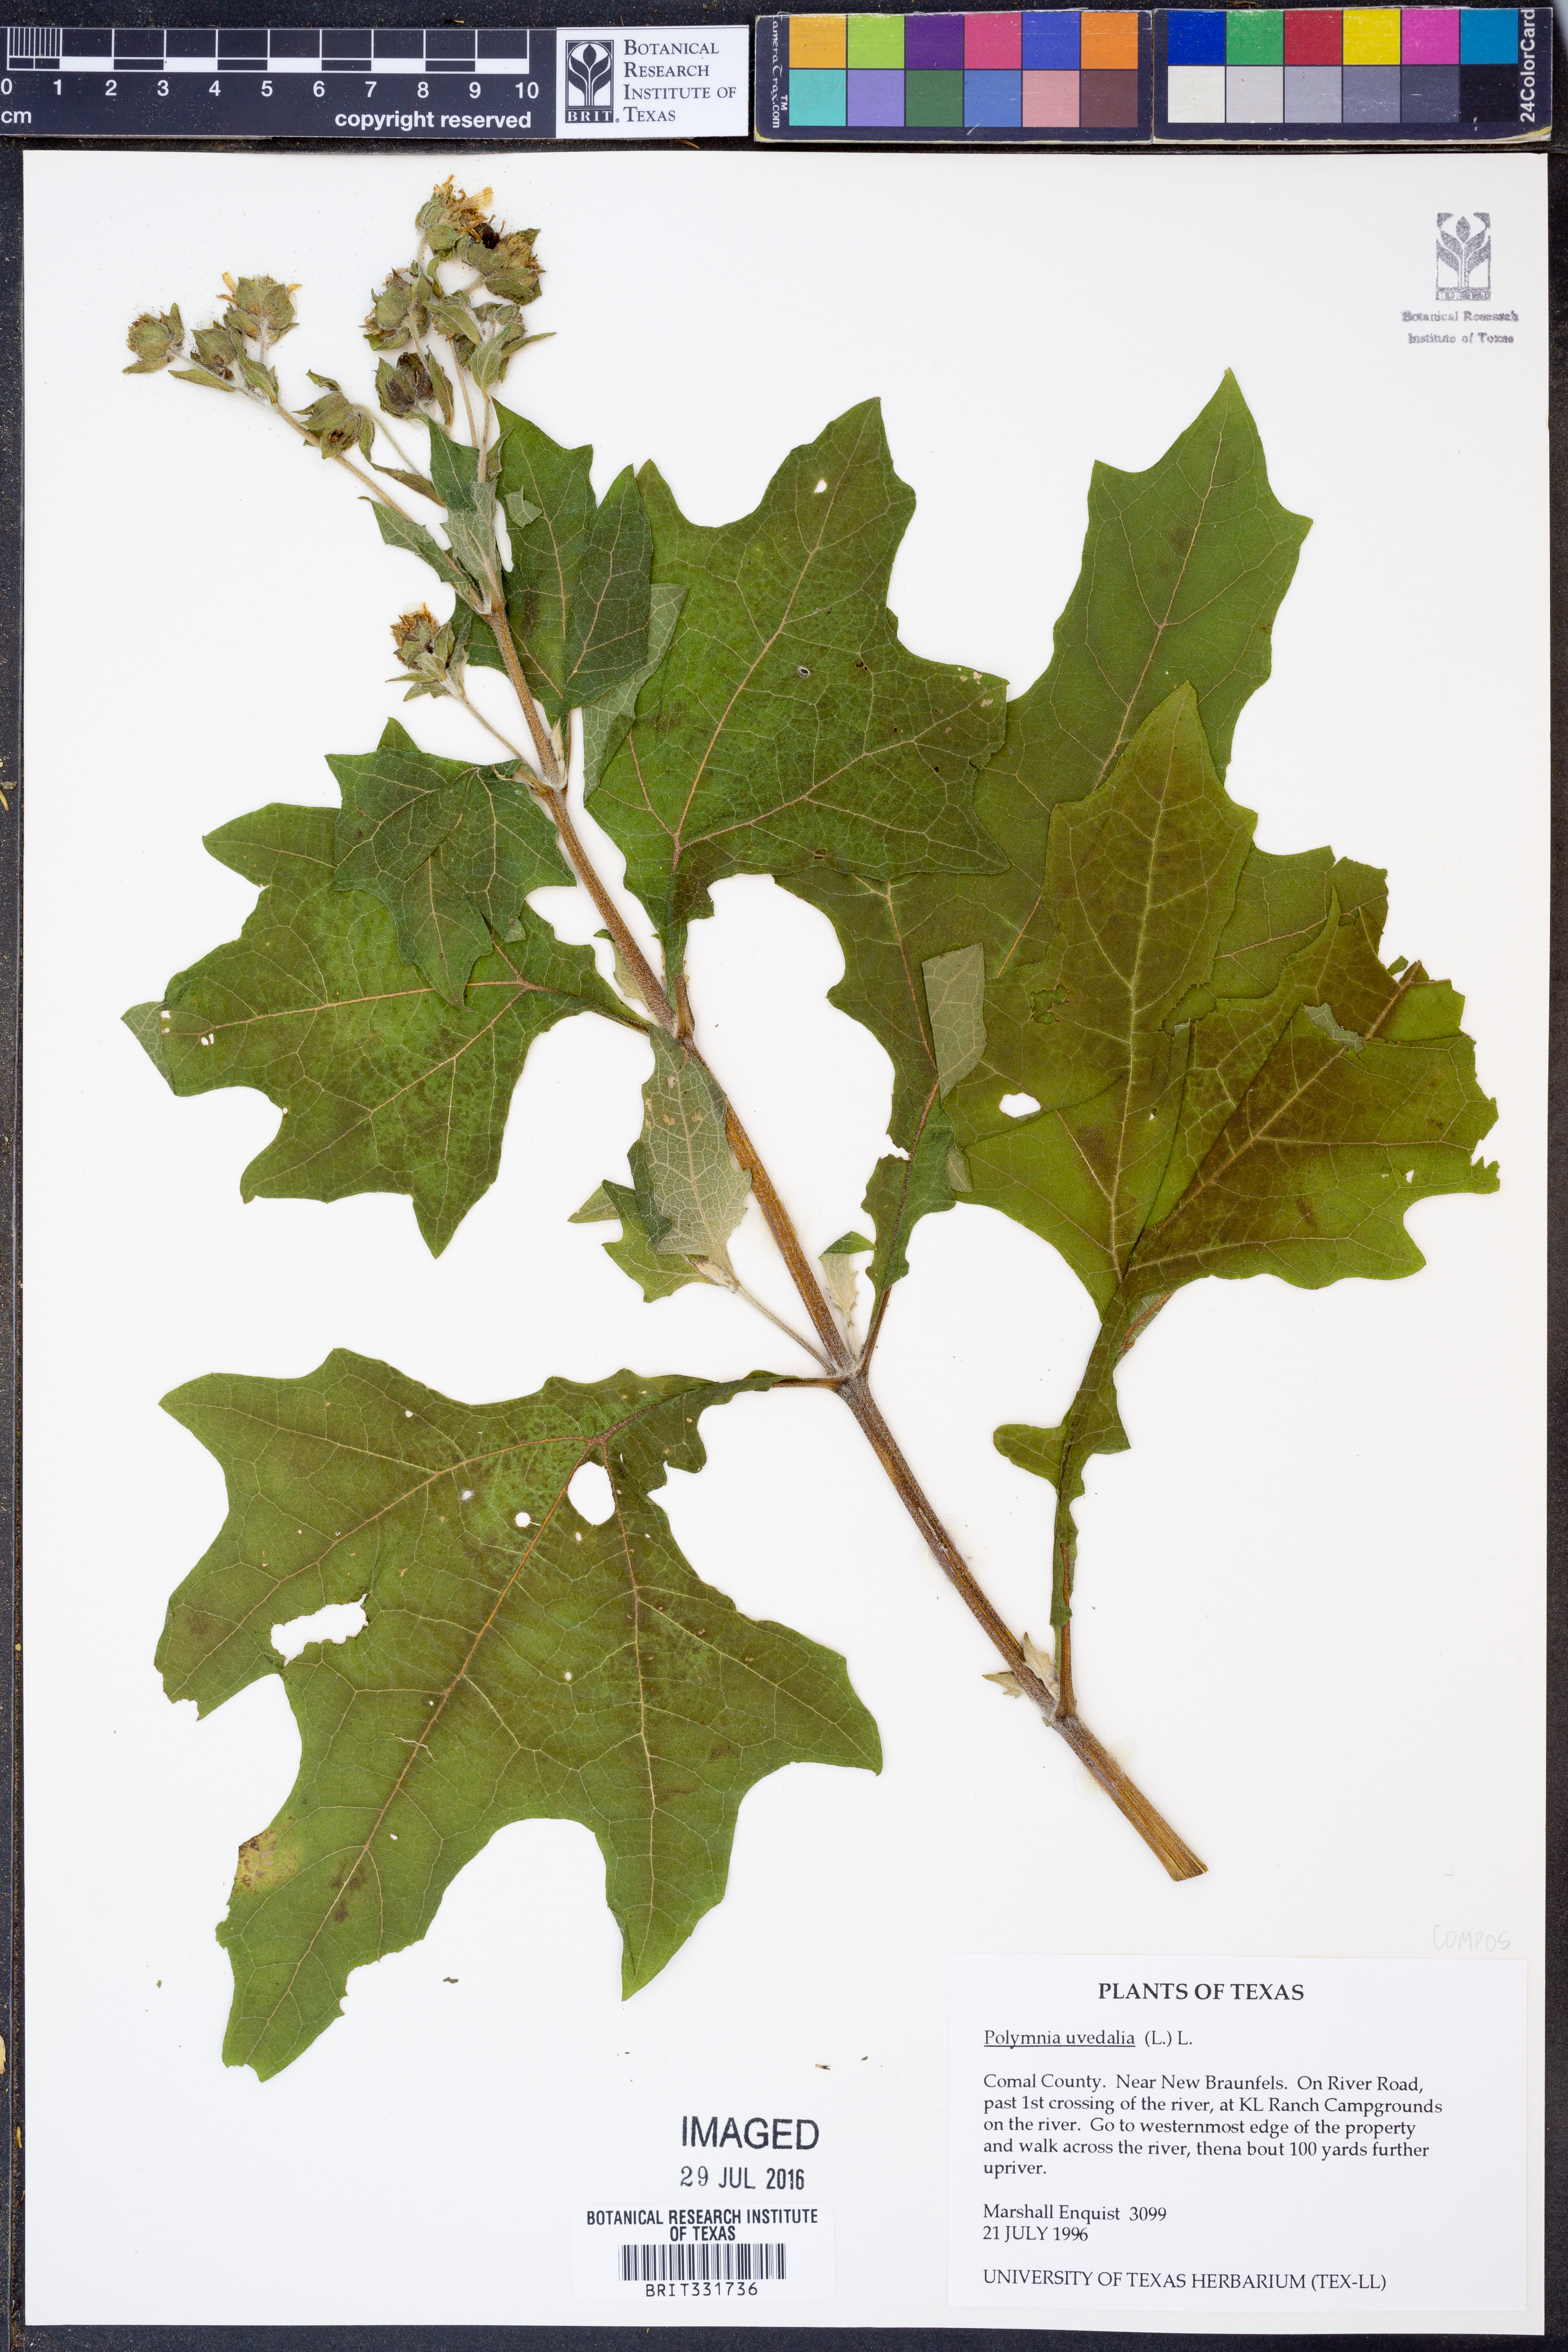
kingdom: Plantae
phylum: Tracheophyta
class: Magnoliopsida
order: Asterales
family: Asteraceae
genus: Smallanthus
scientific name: Smallanthus uvedalia
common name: Bear's-foot
